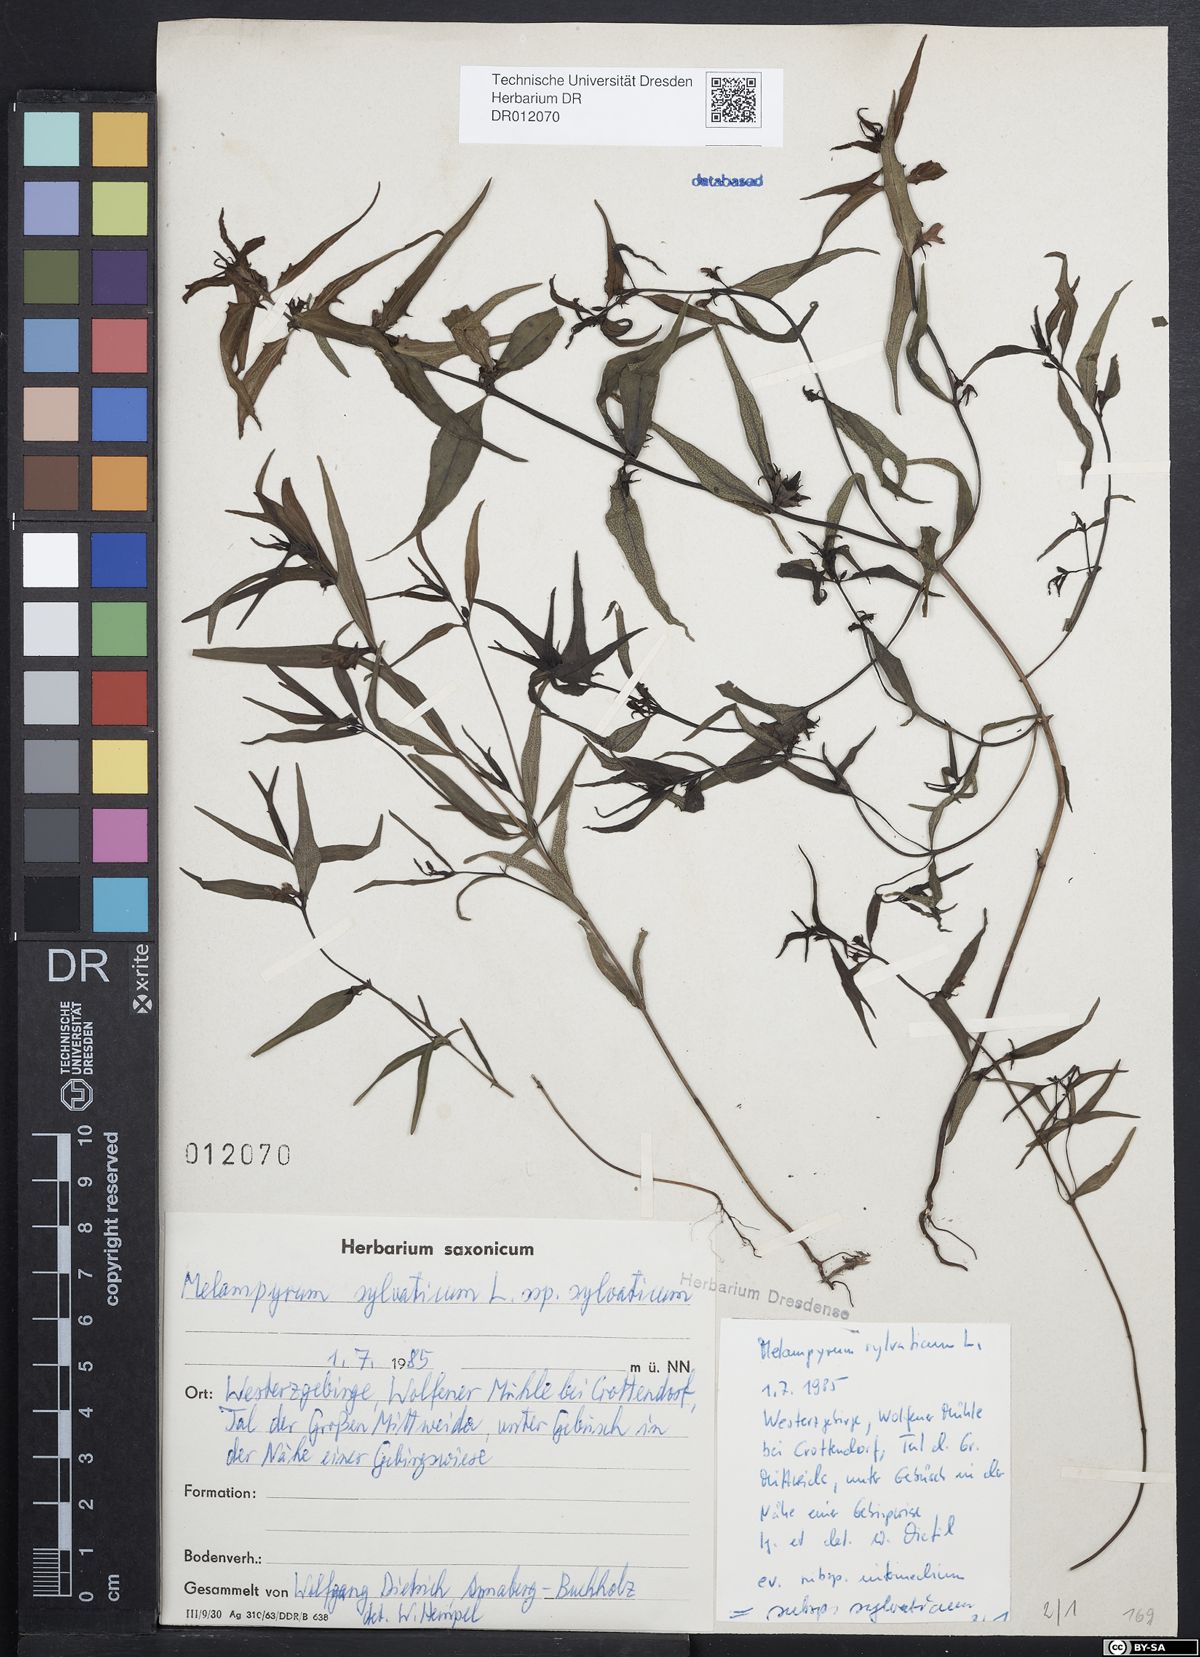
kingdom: Plantae
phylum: Tracheophyta
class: Magnoliopsida
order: Lamiales
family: Orobanchaceae
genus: Melampyrum
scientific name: Melampyrum sylvaticum
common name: Small cow-wheat
